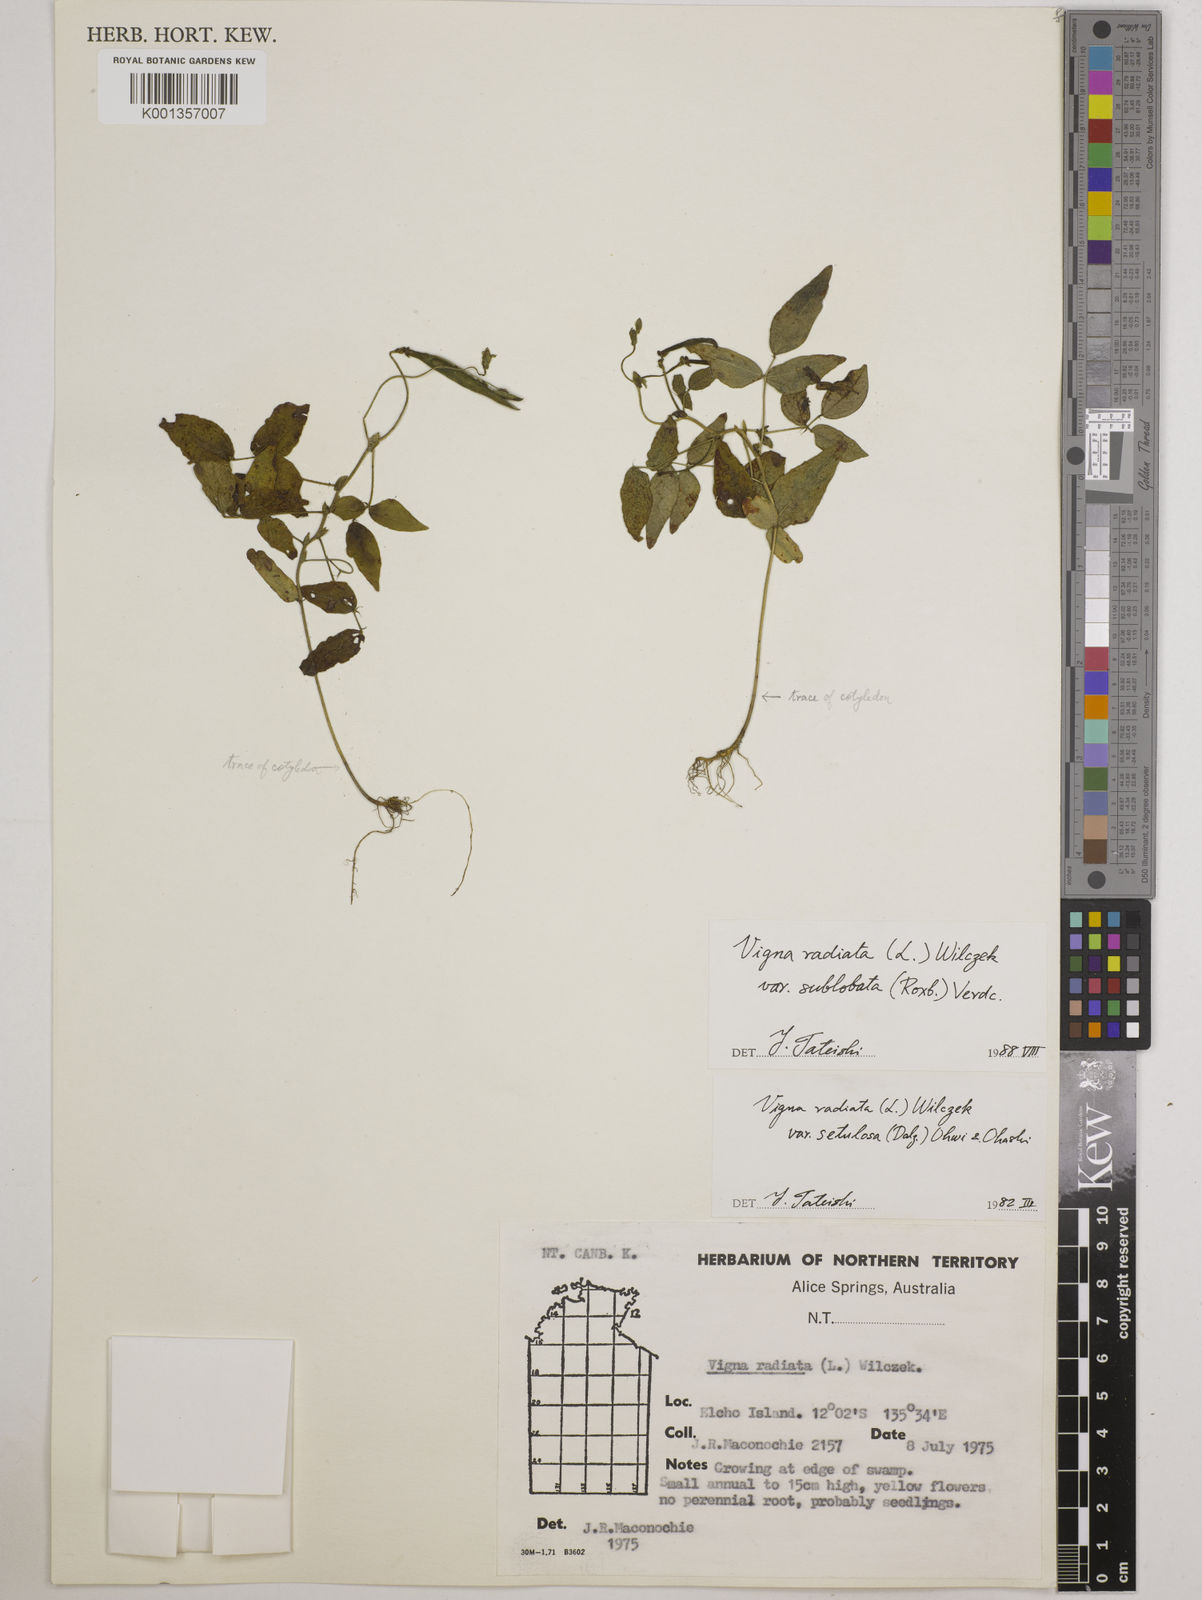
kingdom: Plantae
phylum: Tracheophyta
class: Magnoliopsida
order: Fabales
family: Fabaceae
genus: Vigna
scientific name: Vigna radiata
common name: Mung-bean
